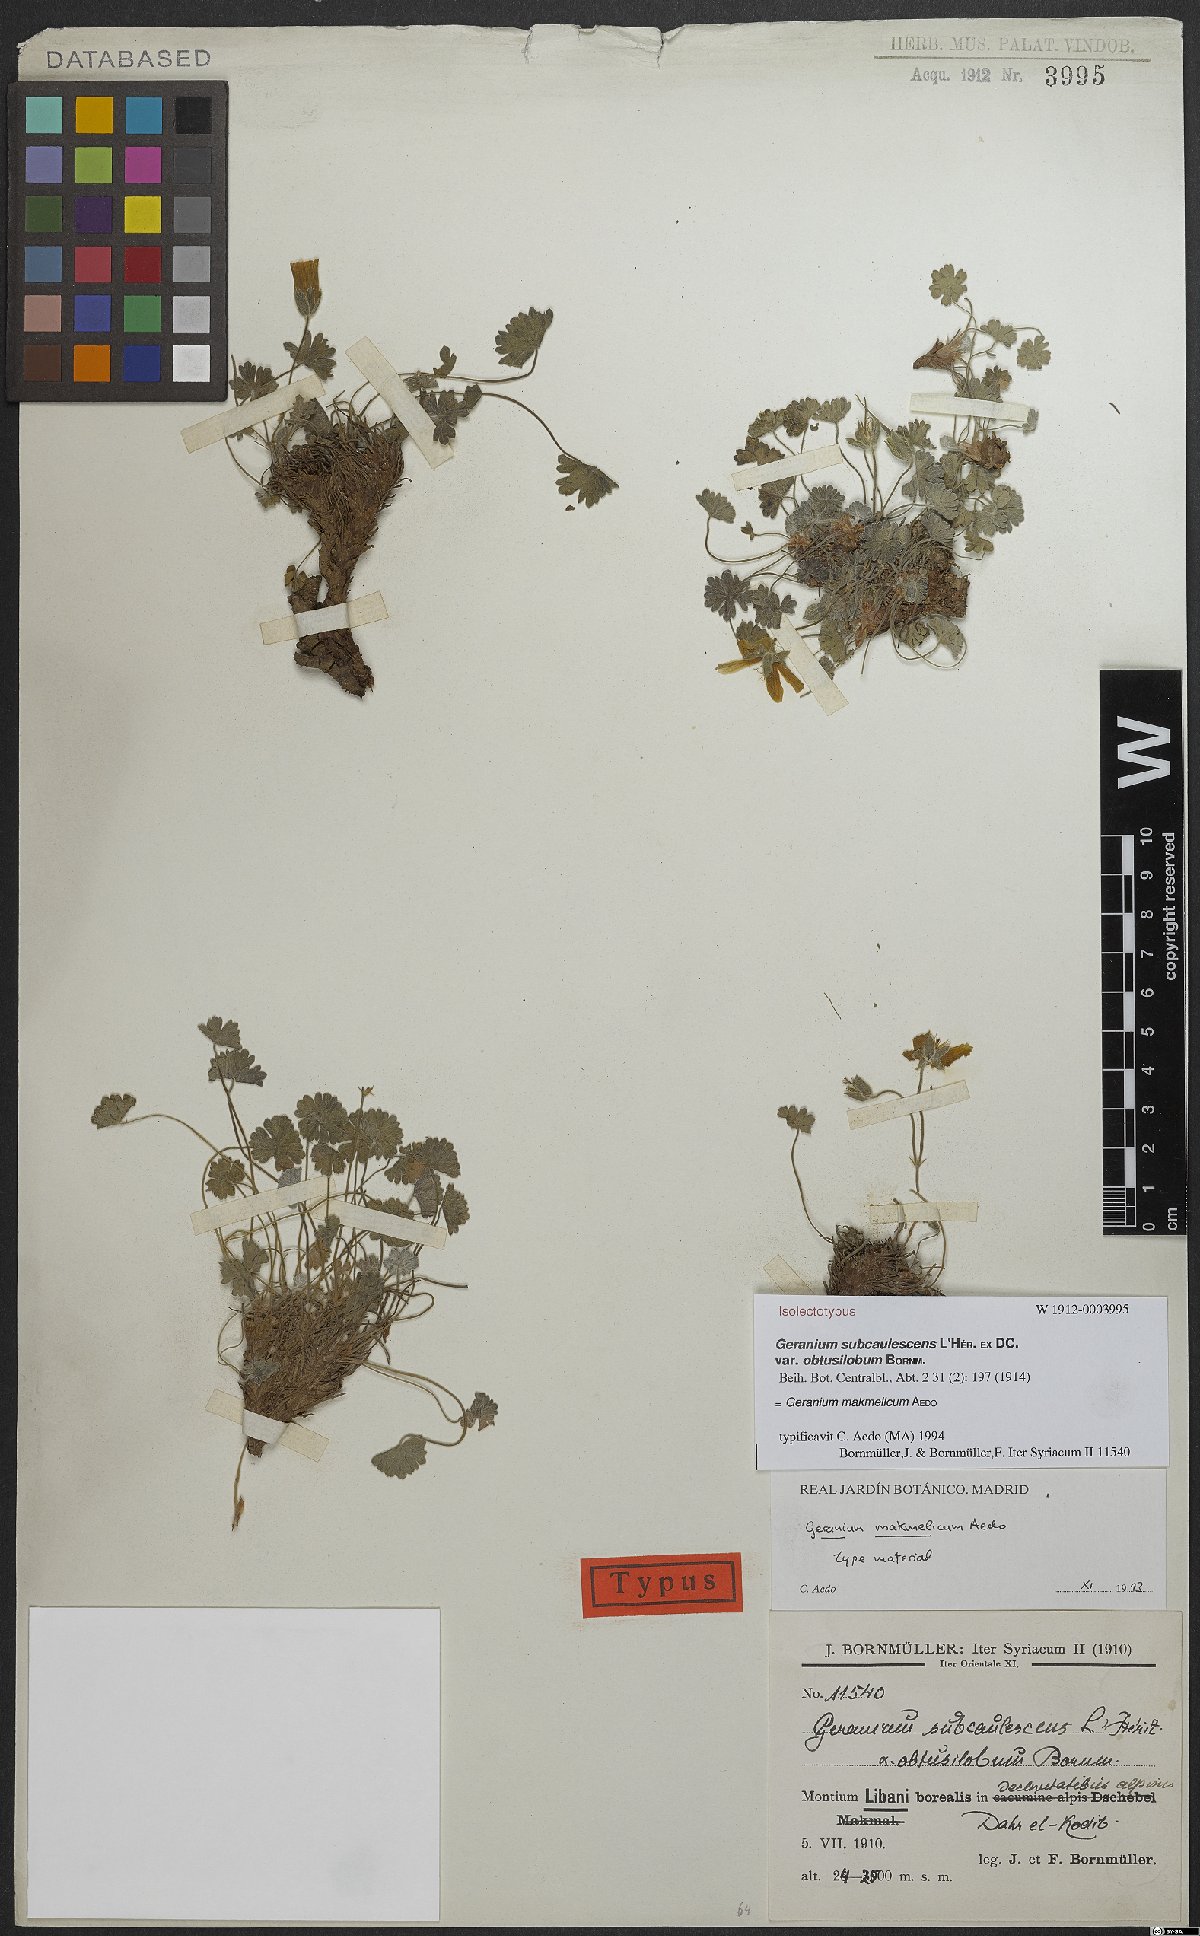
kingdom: Plantae
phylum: Tracheophyta
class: Magnoliopsida
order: Geraniales
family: Geraniaceae
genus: Geranium
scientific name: Geranium makmelicum
